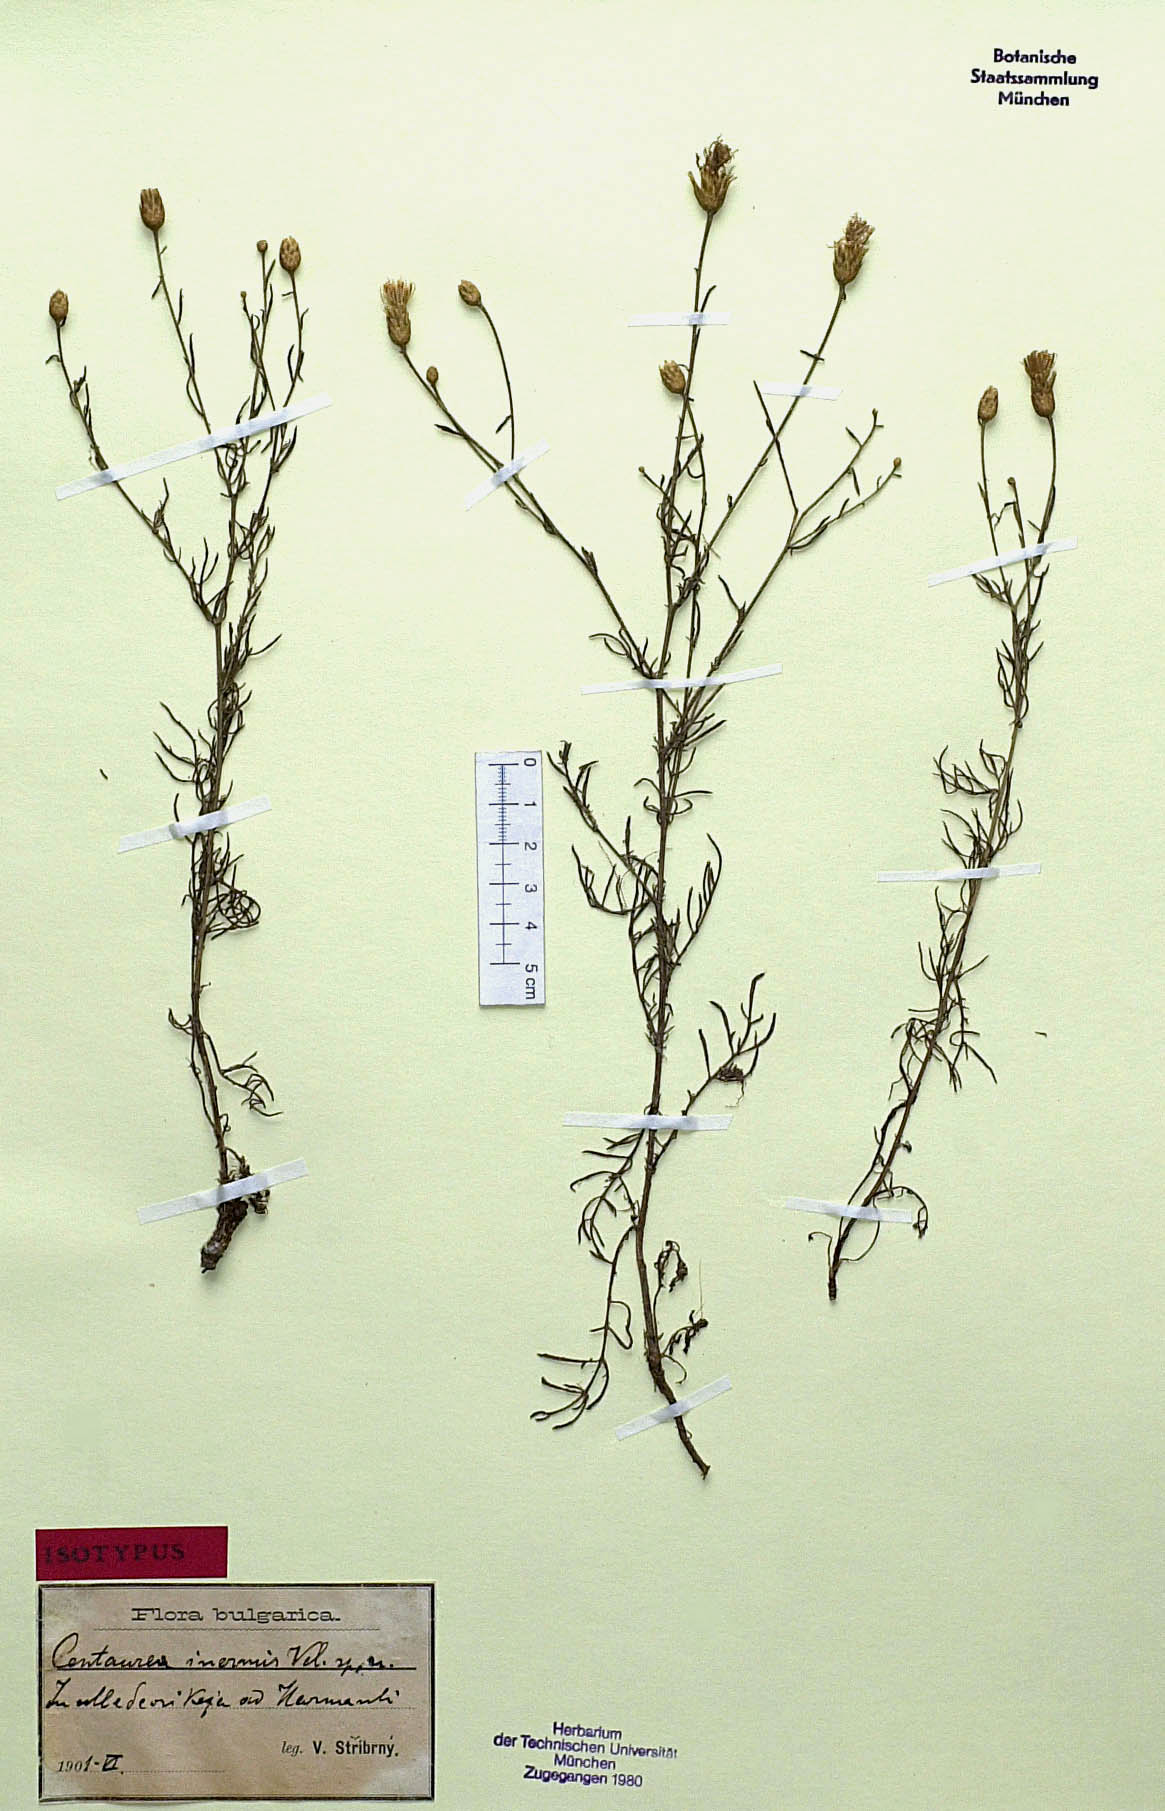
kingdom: Plantae
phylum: Tracheophyta
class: Magnoliopsida
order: Asterales
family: Asteraceae
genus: Centaurea
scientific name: Centaurea inermis
